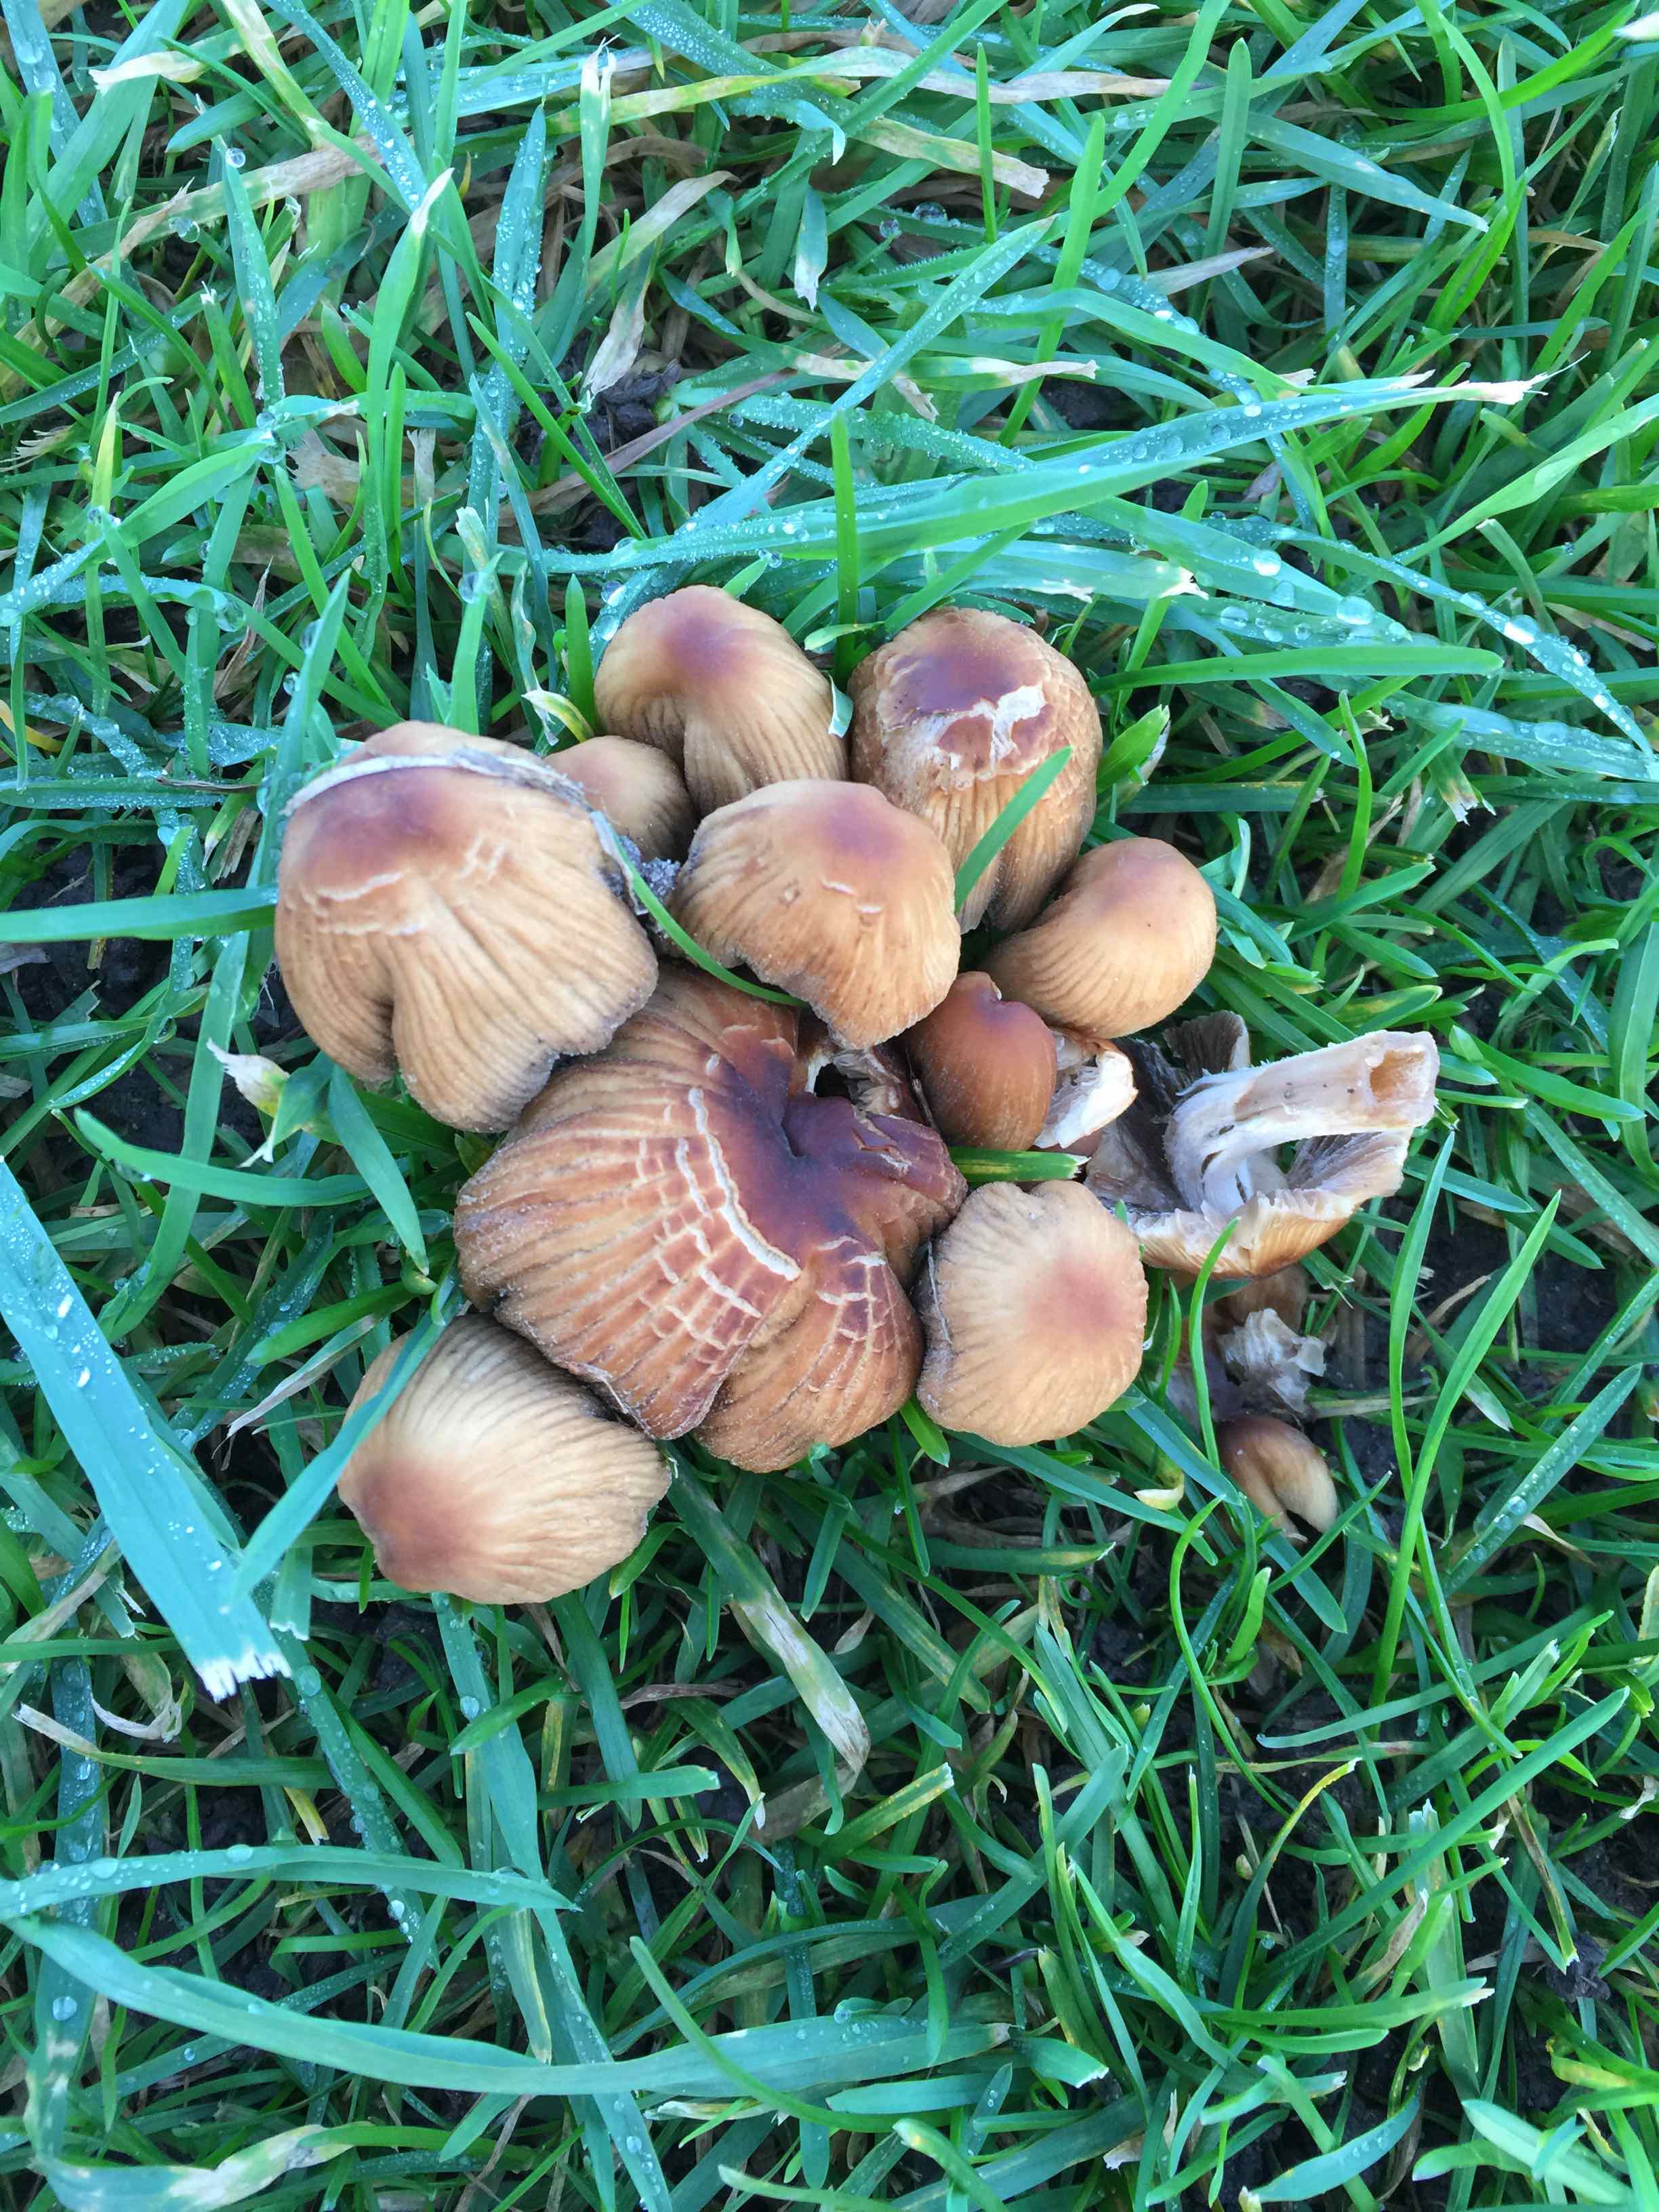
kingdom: Fungi
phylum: Basidiomycota
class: Agaricomycetes
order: Agaricales
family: Psathyrellaceae
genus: Coprinellus
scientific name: Coprinellus micaceus
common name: glimmer-blækhat
